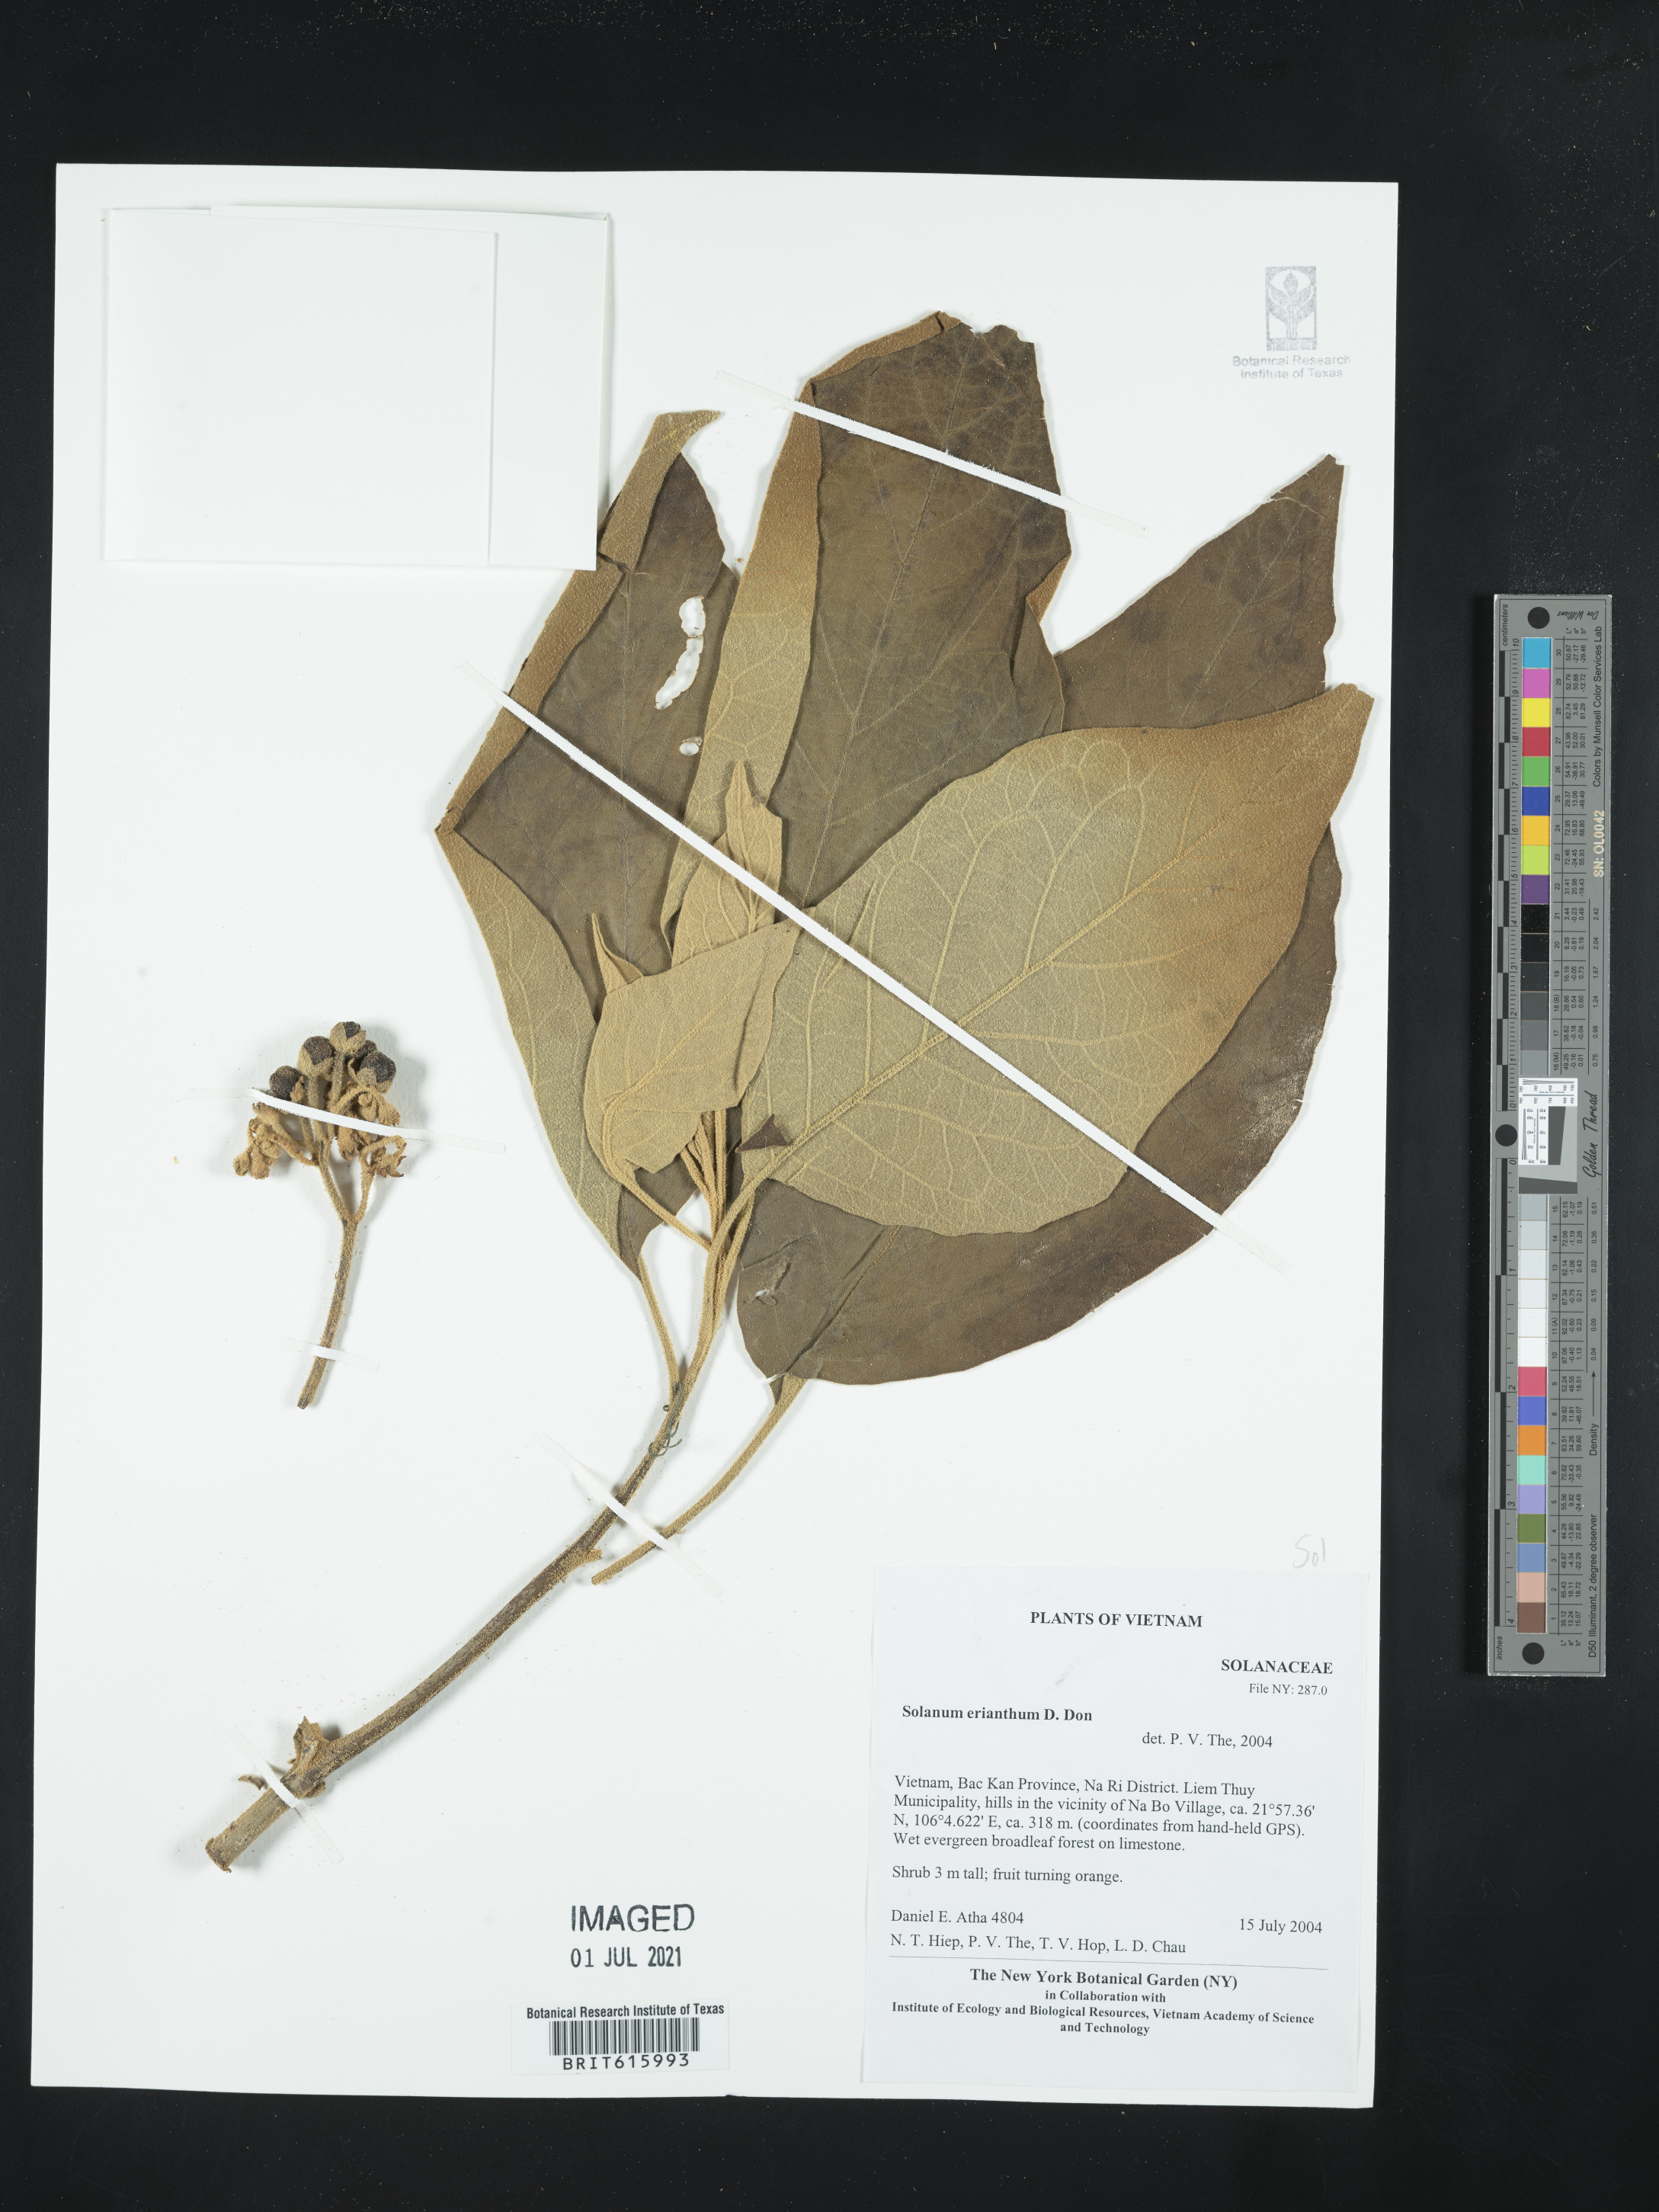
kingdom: Plantae
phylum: Tracheophyta
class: Magnoliopsida
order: Solanales
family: Solanaceae
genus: Solanum
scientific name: Solanum erianthum
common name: Tobacco-tree
